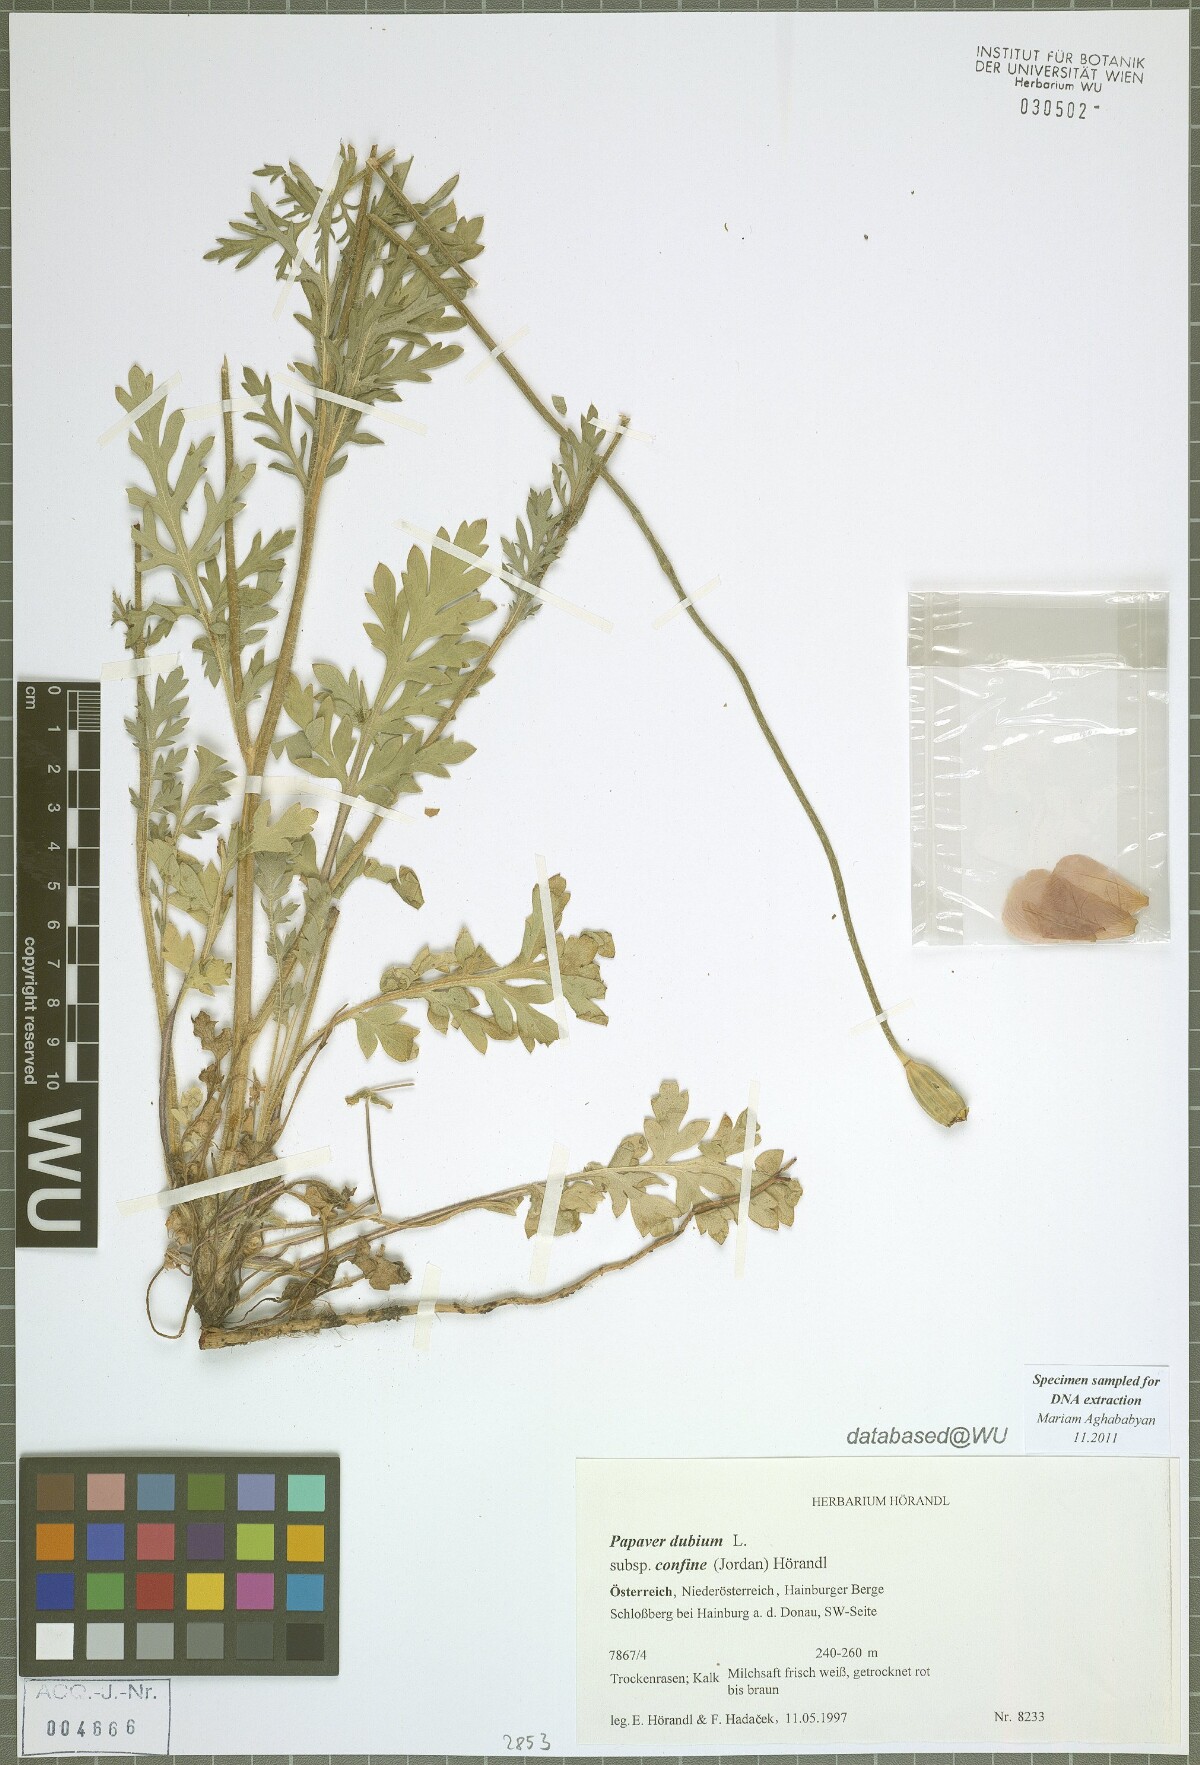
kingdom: Plantae
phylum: Tracheophyta
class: Magnoliopsida
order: Ranunculales
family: Papaveraceae
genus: Papaver
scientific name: Papaver confine
